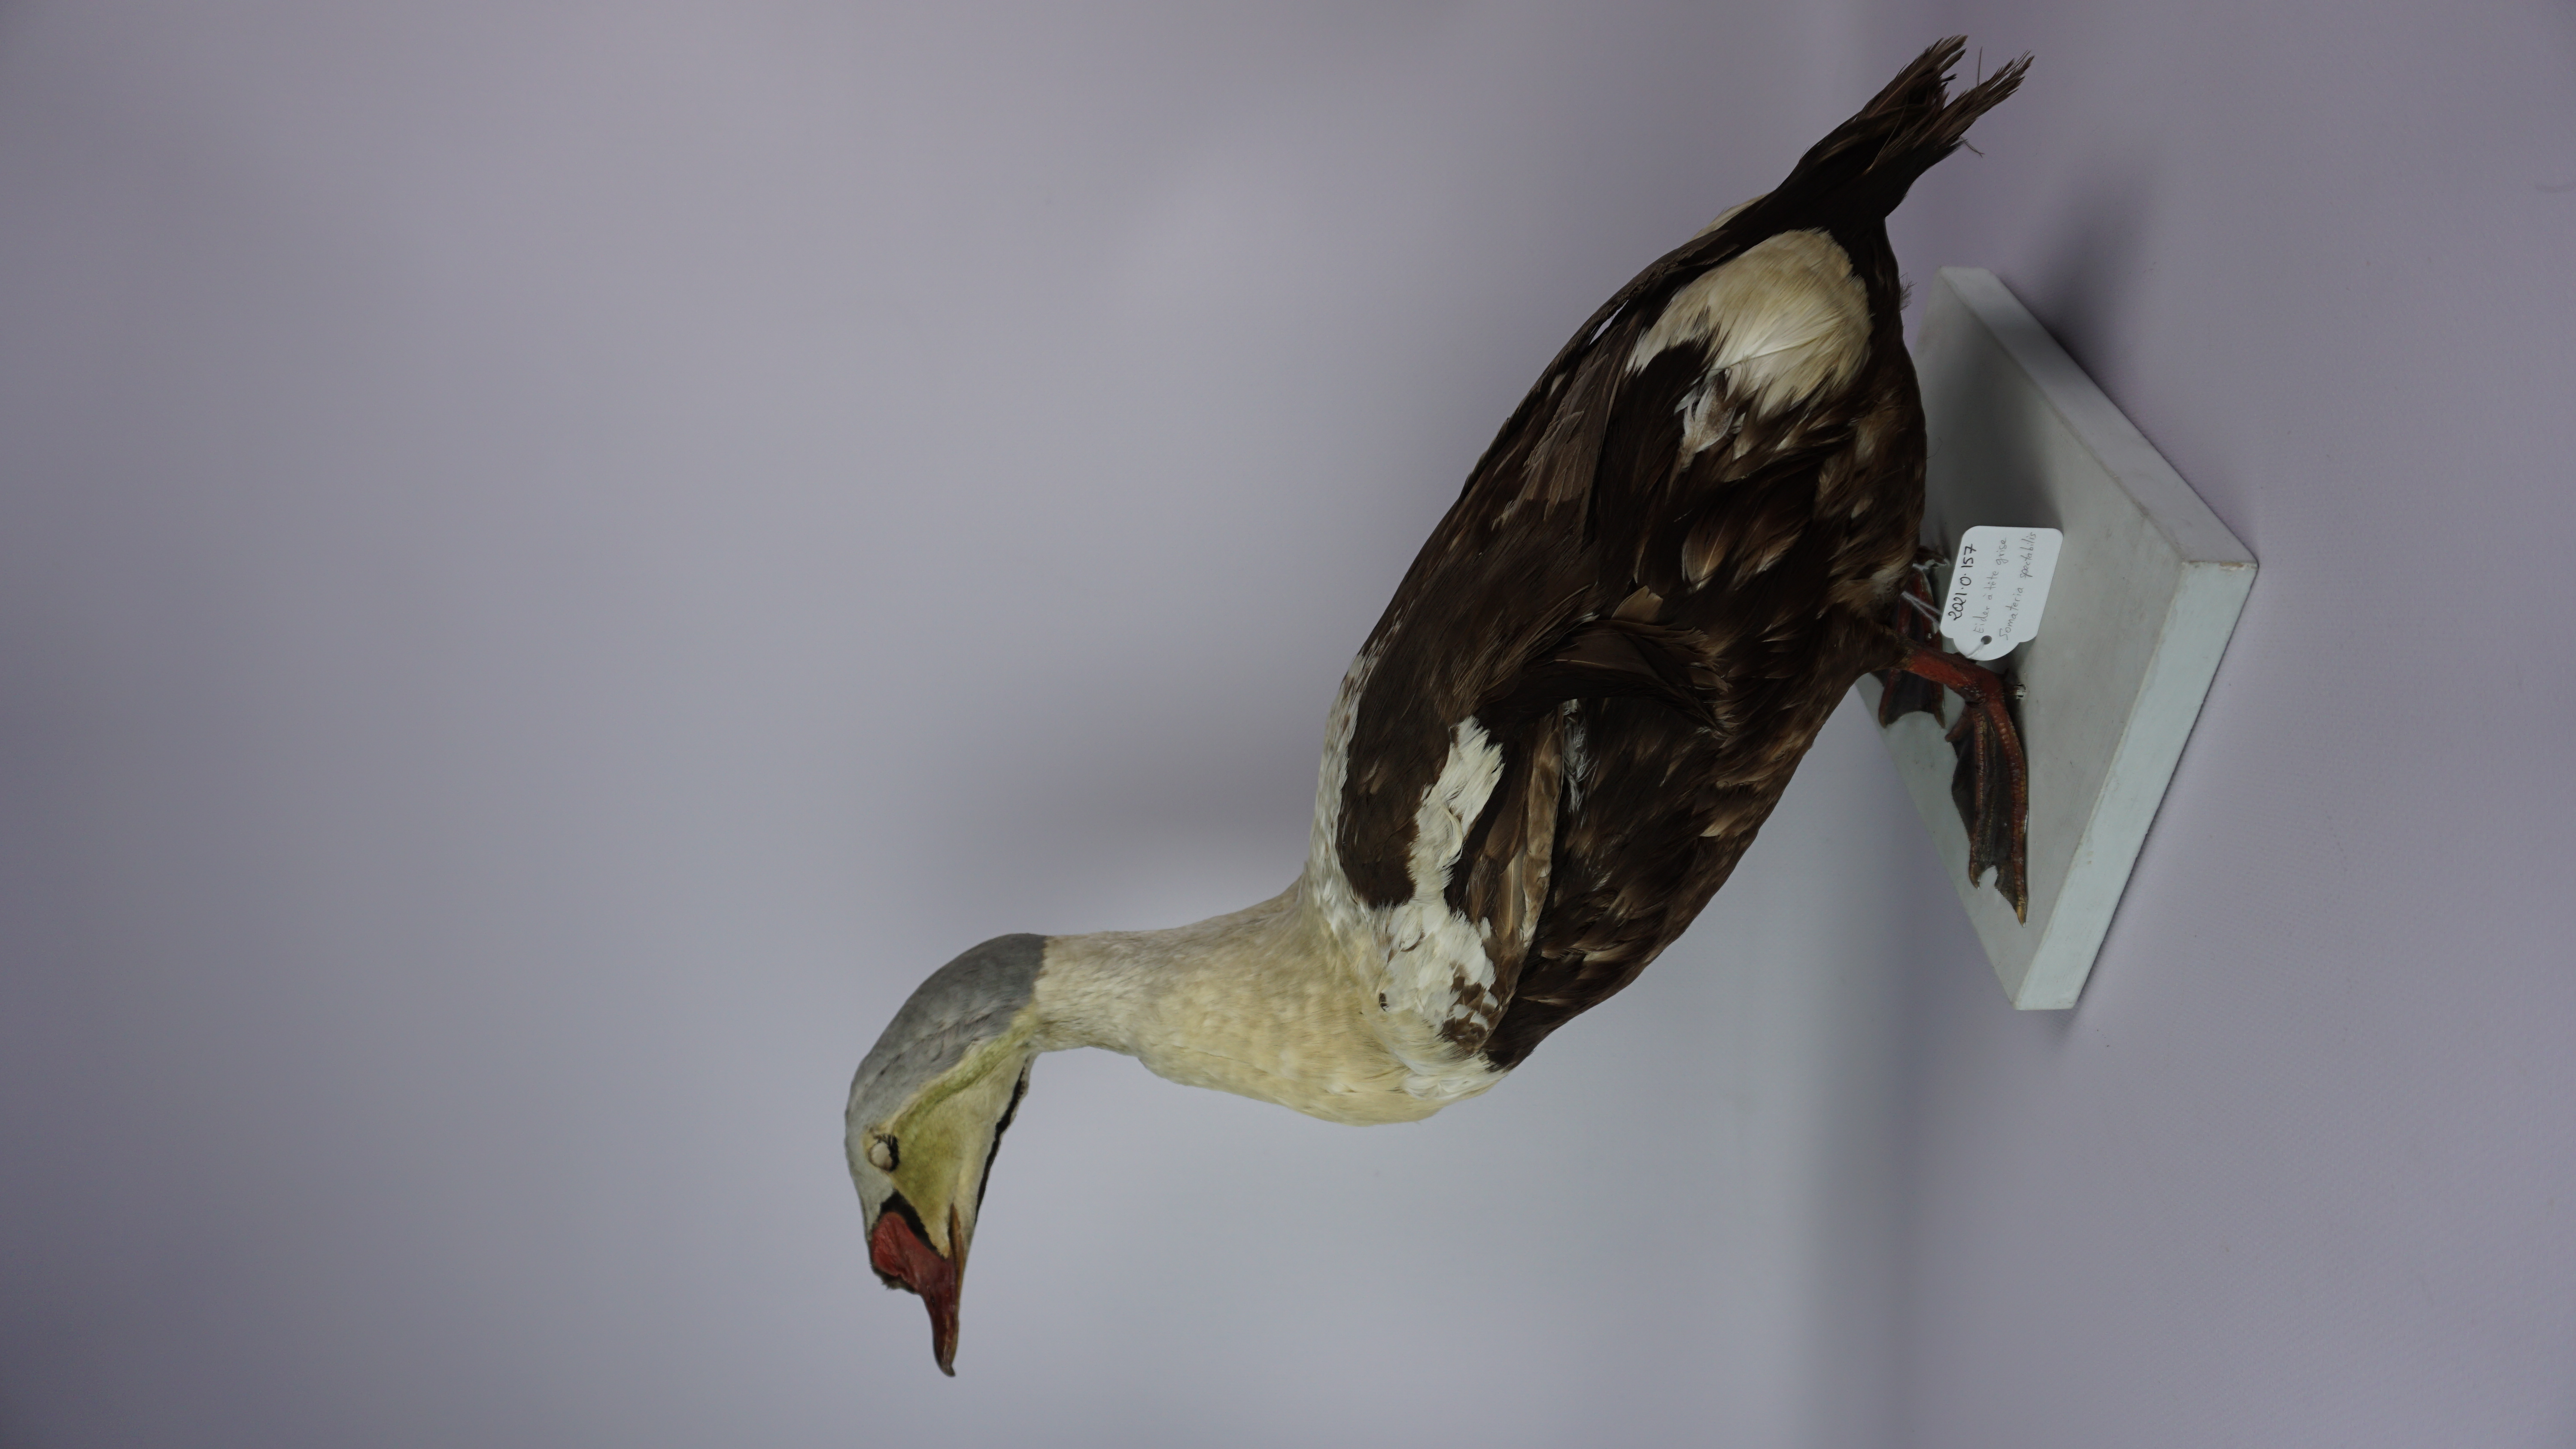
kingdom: Animalia
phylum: Chordata
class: Aves
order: Anseriformes
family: Anatidae
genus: Somateria
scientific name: Somateria spectabilis
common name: King eider
